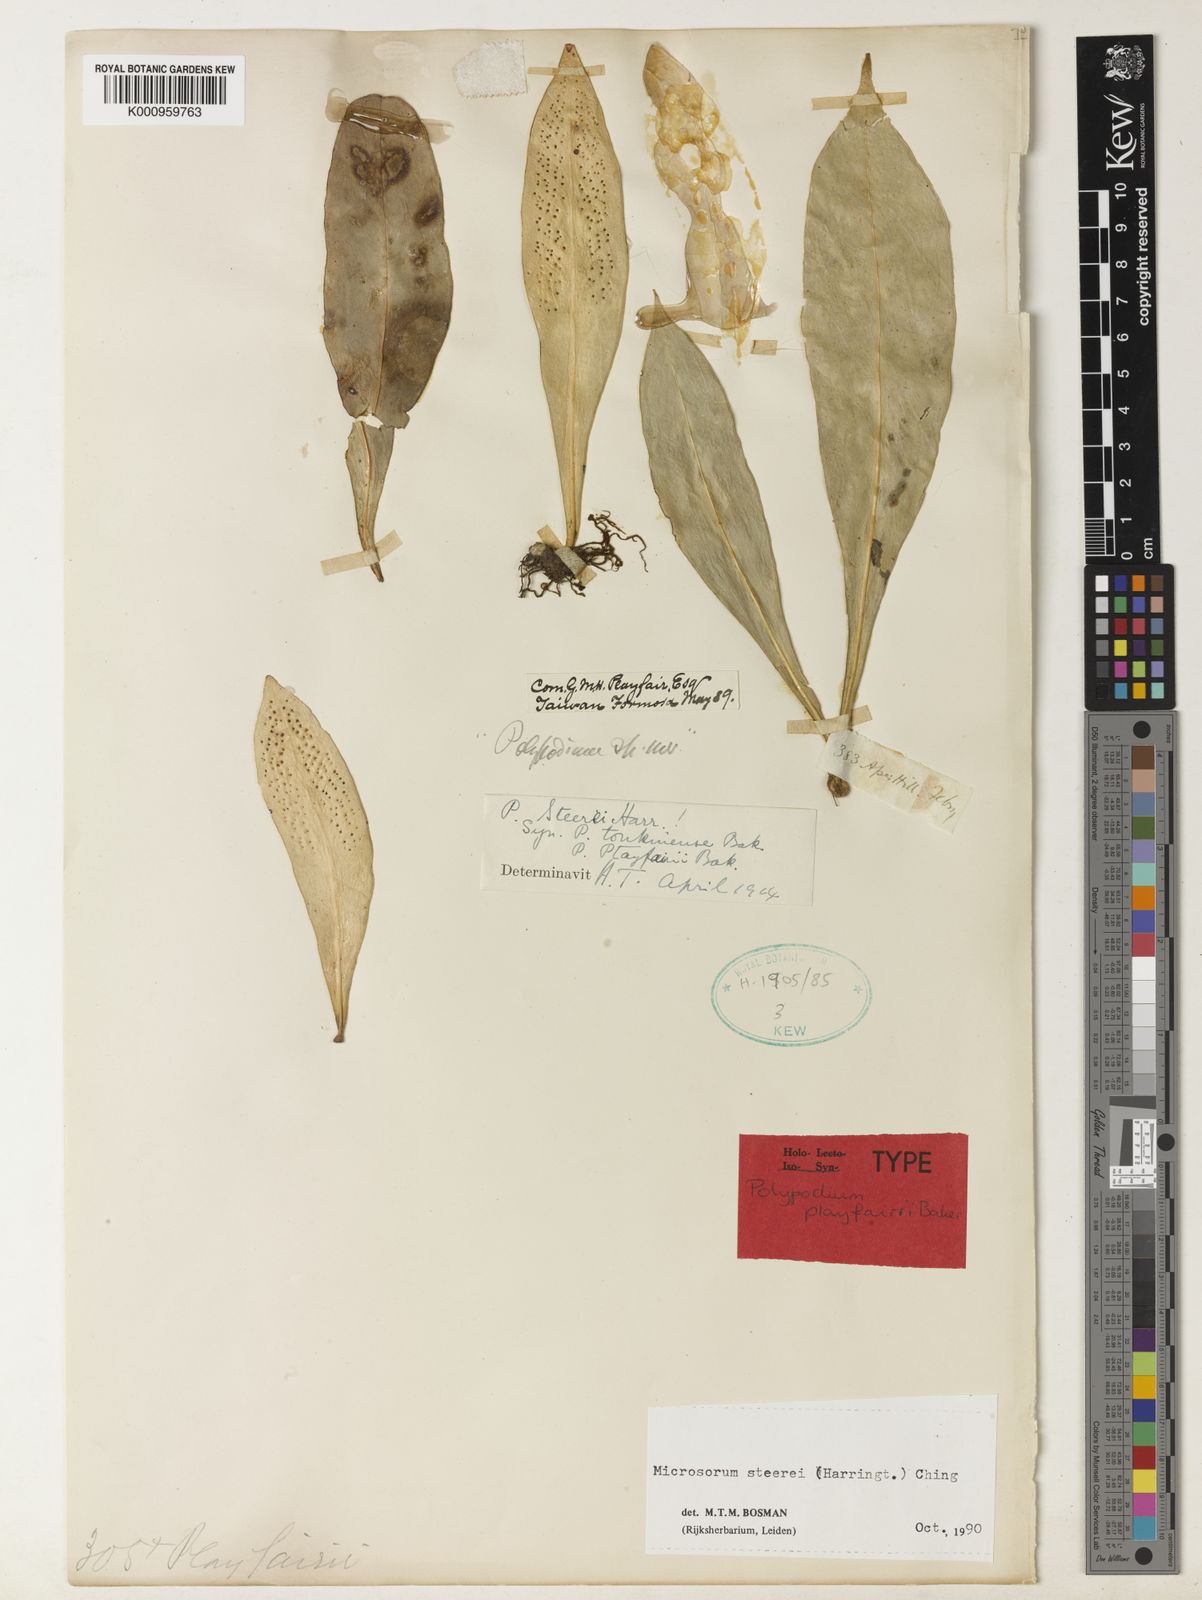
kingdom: Plantae
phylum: Tracheophyta
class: Polypodiopsida
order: Polypodiales
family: Polypodiaceae
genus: Microsorum
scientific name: Microsorum steerei
